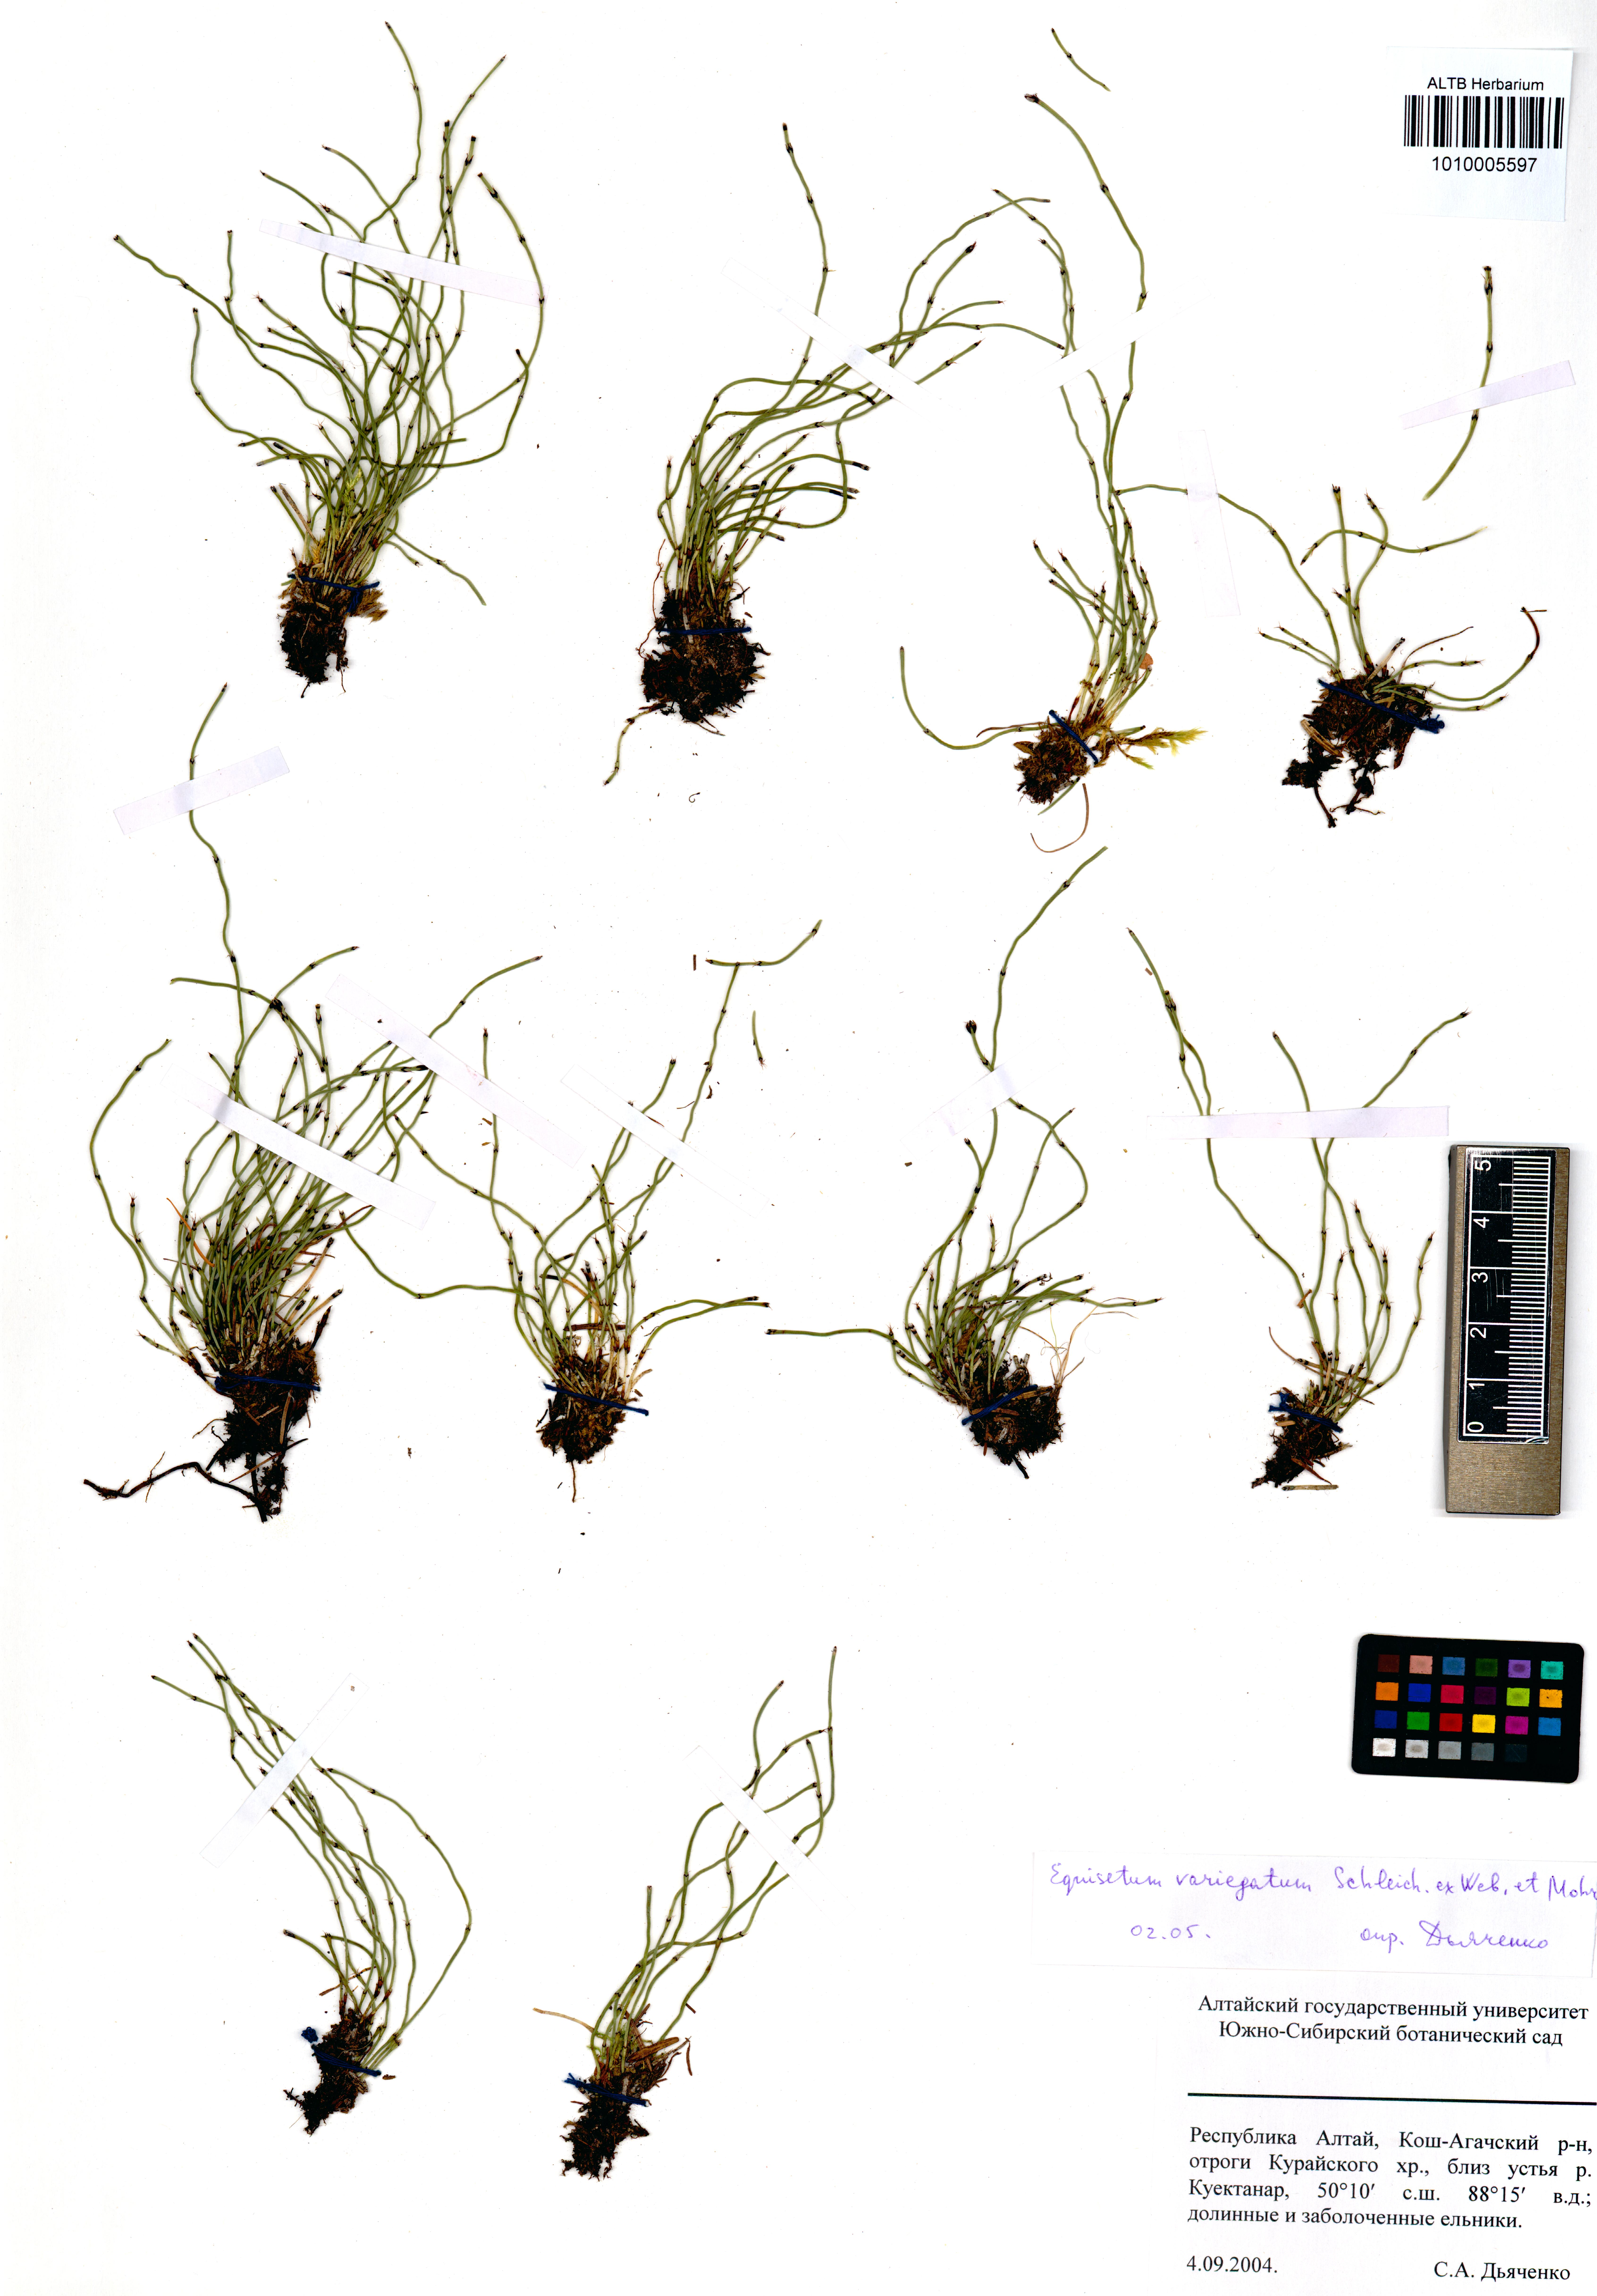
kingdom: Plantae
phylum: Tracheophyta
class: Polypodiopsida
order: Equisetales
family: Equisetaceae
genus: Equisetum
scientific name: Equisetum variegatum
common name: Variegated horsetail
